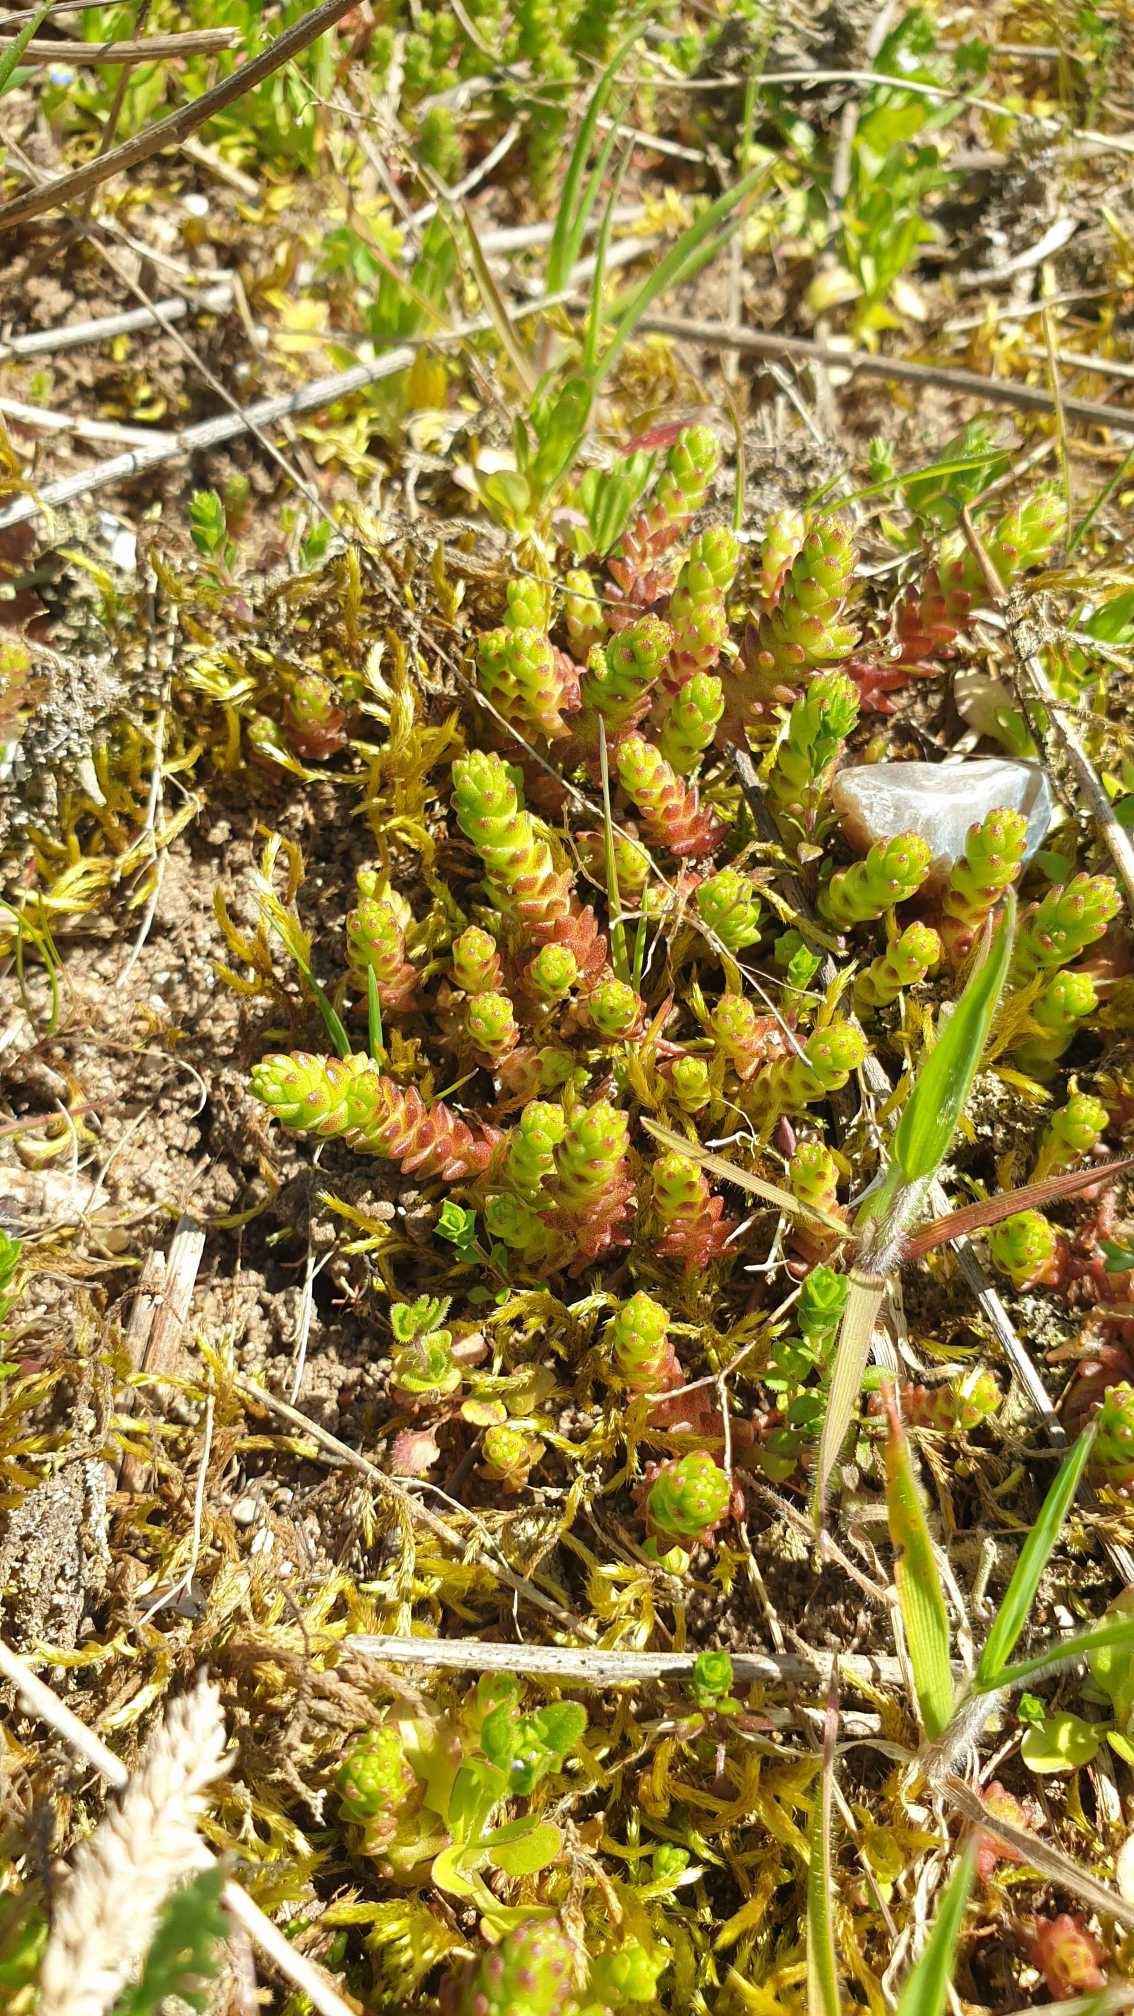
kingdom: Plantae
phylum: Tracheophyta
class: Magnoliopsida
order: Saxifragales
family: Crassulaceae
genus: Sedum
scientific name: Sedum acre
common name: Bidende stenurt
